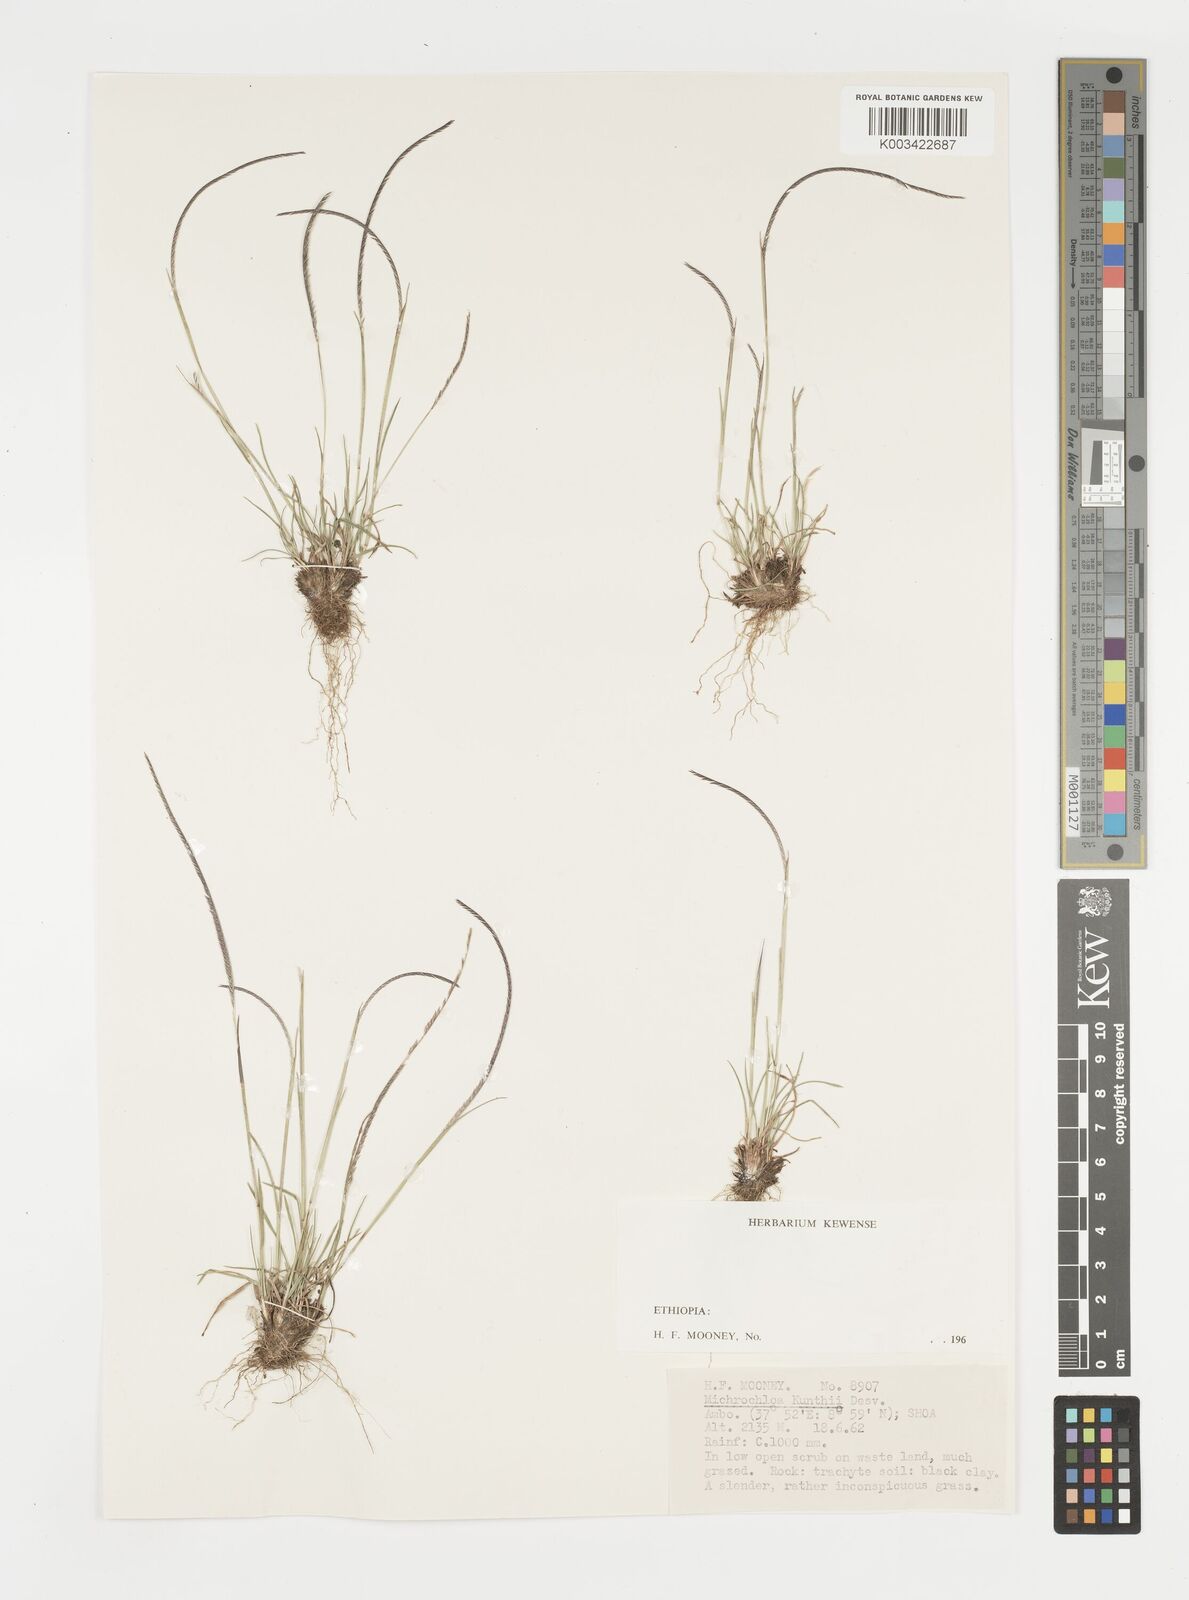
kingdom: Plantae
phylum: Tracheophyta
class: Liliopsida
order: Poales
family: Poaceae
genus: Microchloa
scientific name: Microchloa kunthii
